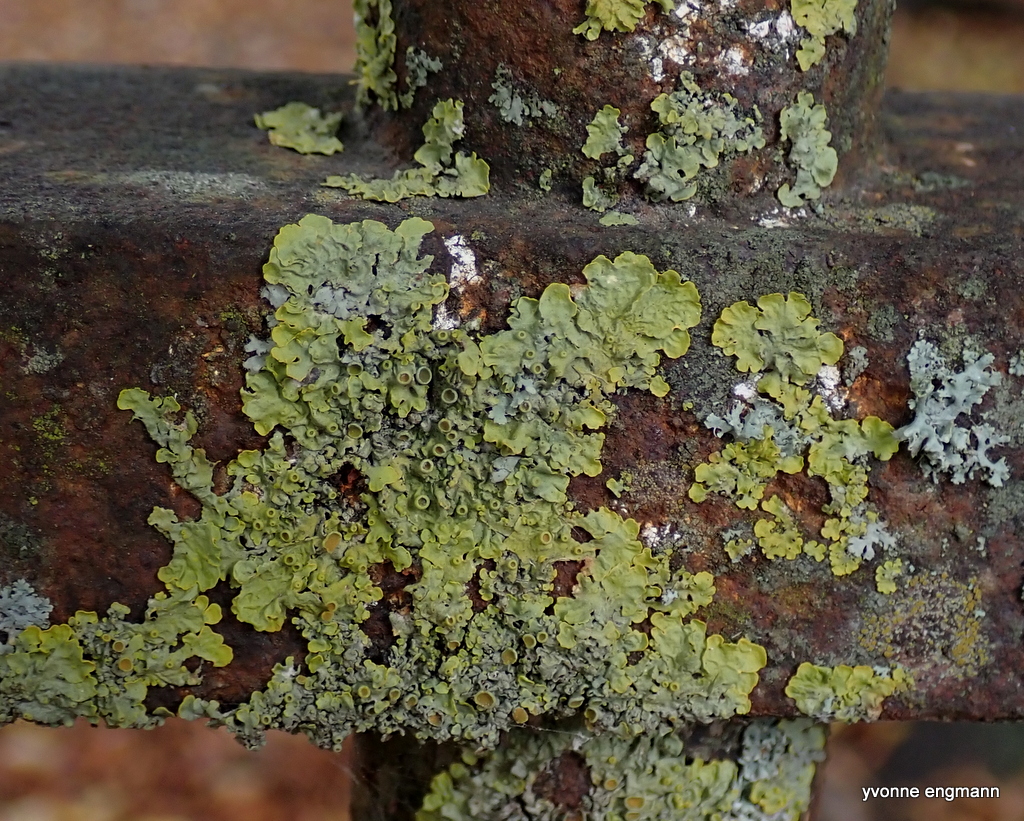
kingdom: Fungi
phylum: Ascomycota
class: Lecanoromycetes
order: Teloschistales
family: Teloschistaceae
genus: Xanthoria
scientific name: Xanthoria parietina
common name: almindelig væggelav
